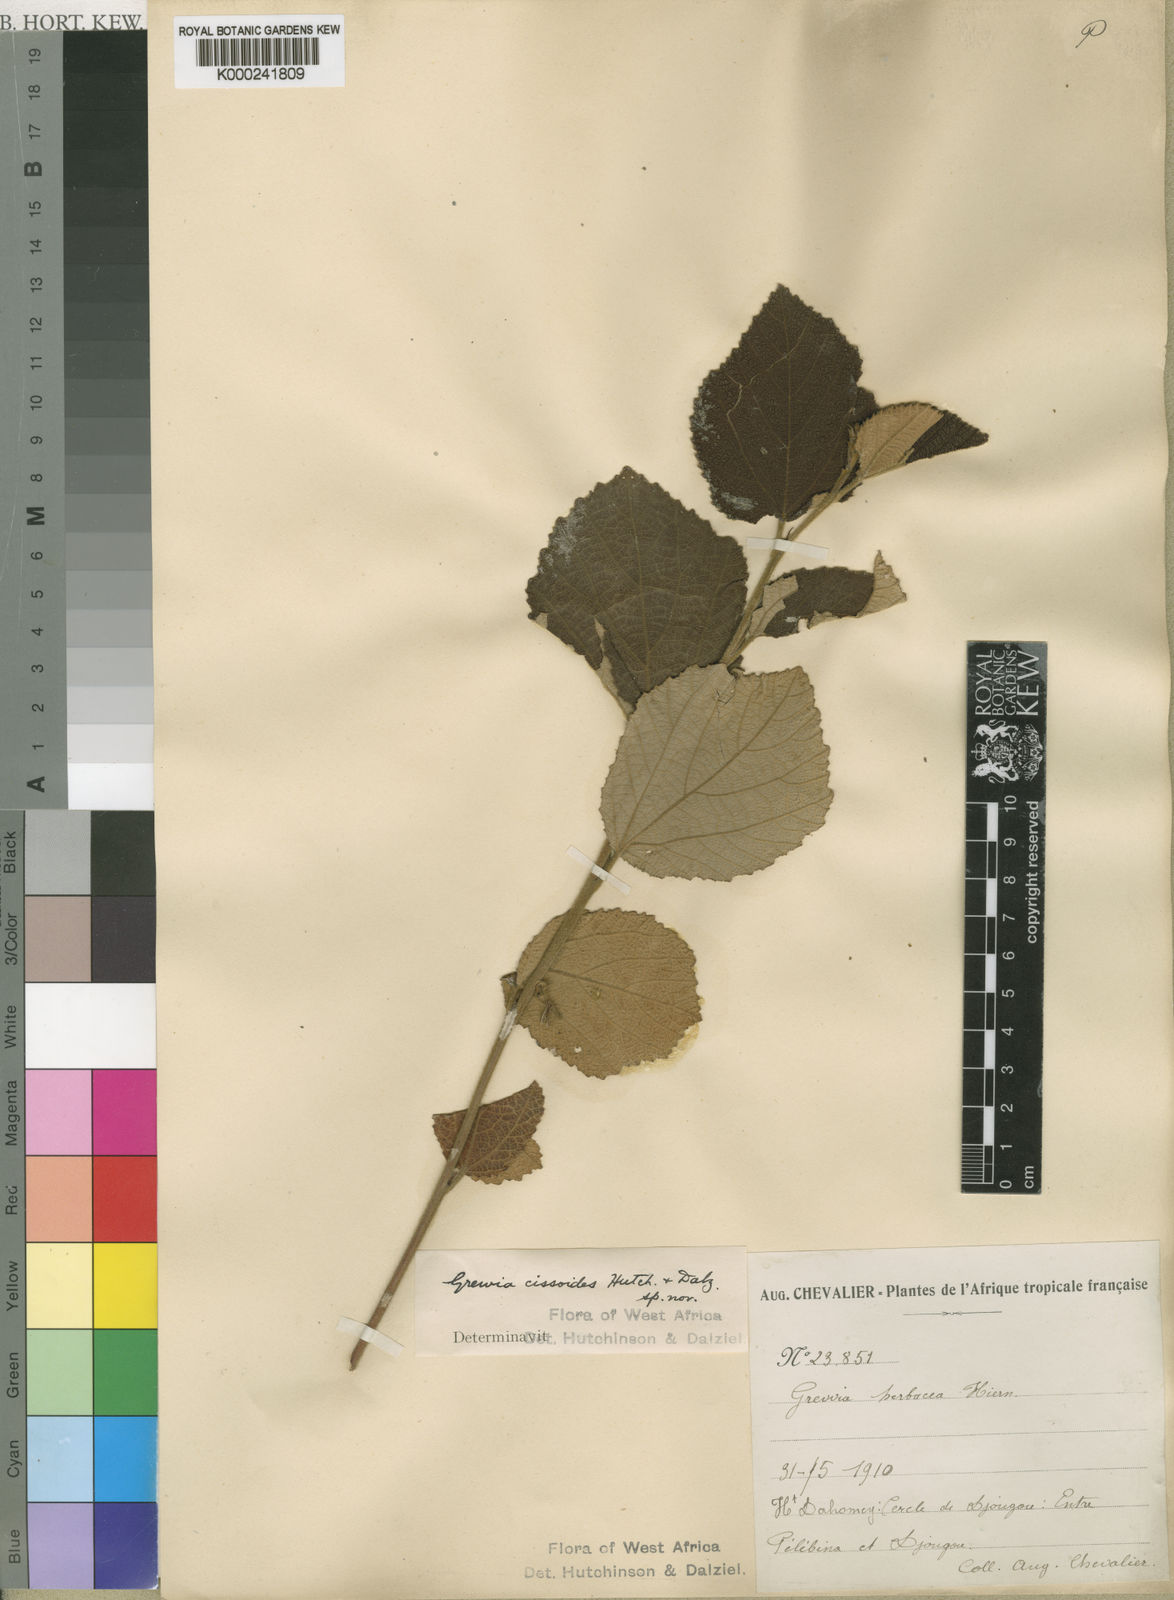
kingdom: Plantae
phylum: Tracheophyta
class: Magnoliopsida
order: Malvales
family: Malvaceae
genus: Grewia
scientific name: Grewia cissoides
